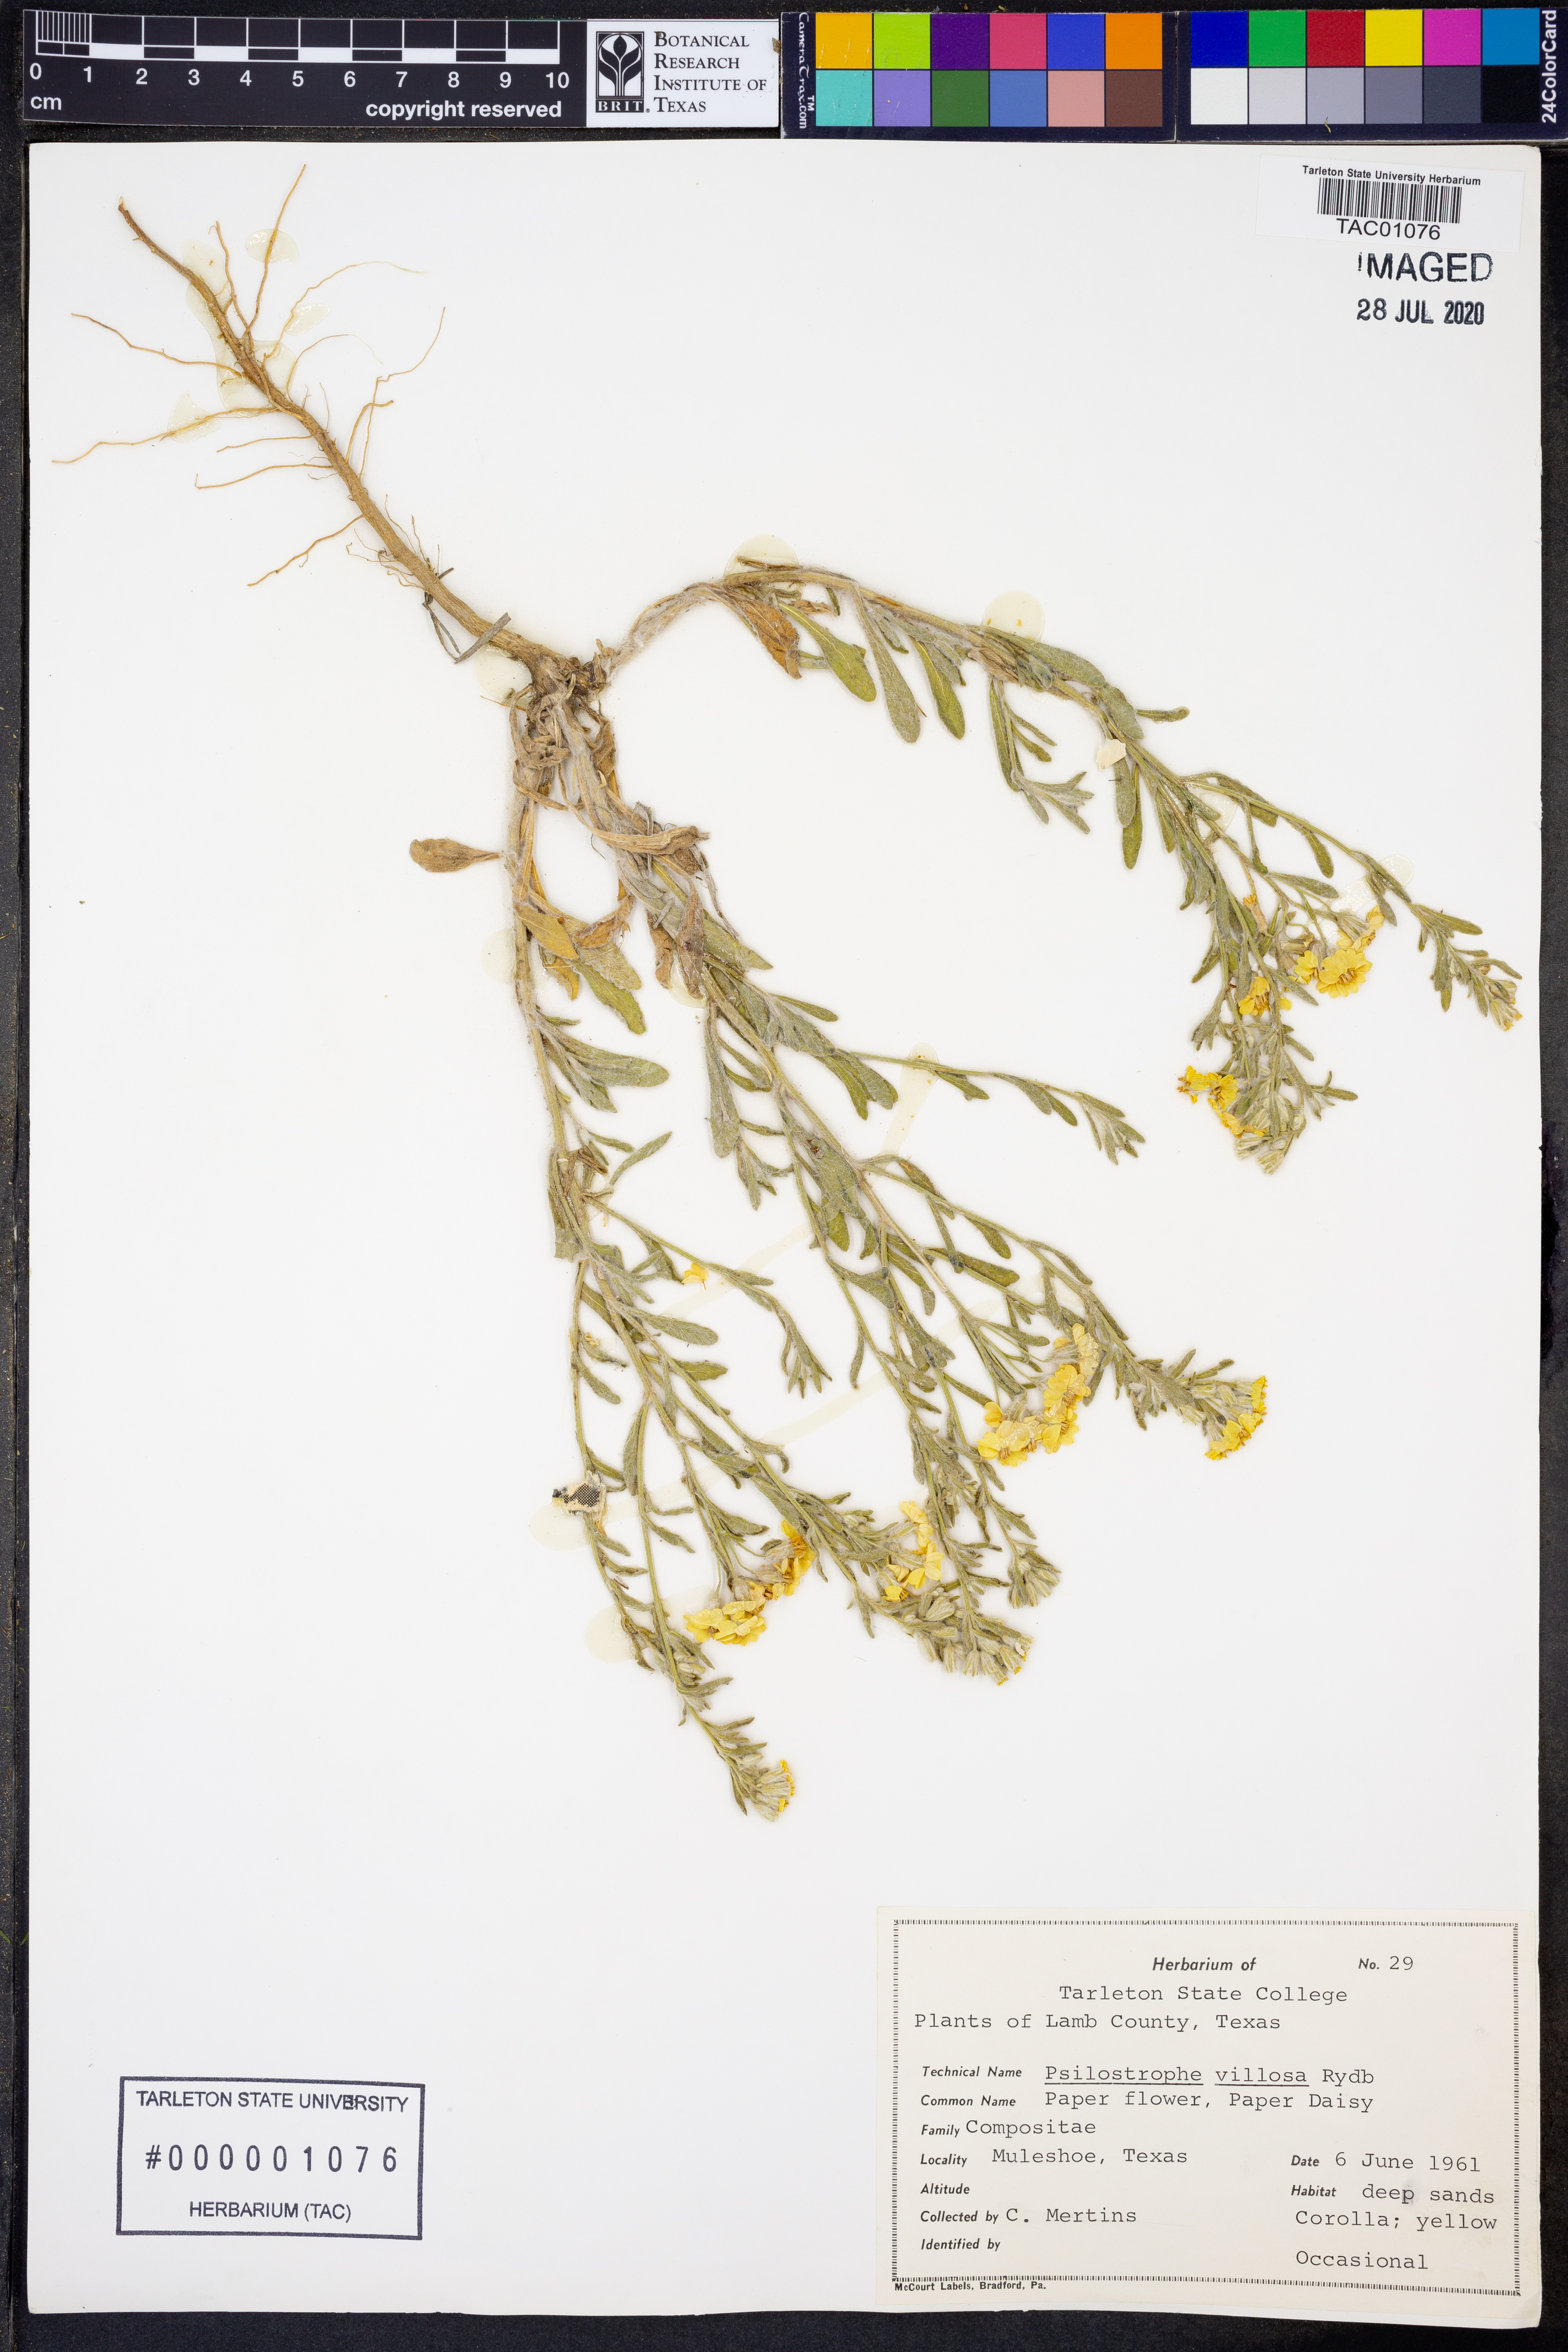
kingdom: Plantae
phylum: Tracheophyta
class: Magnoliopsida
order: Asterales
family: Asteraceae
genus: Psilostrophe
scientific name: Psilostrophe villosa
